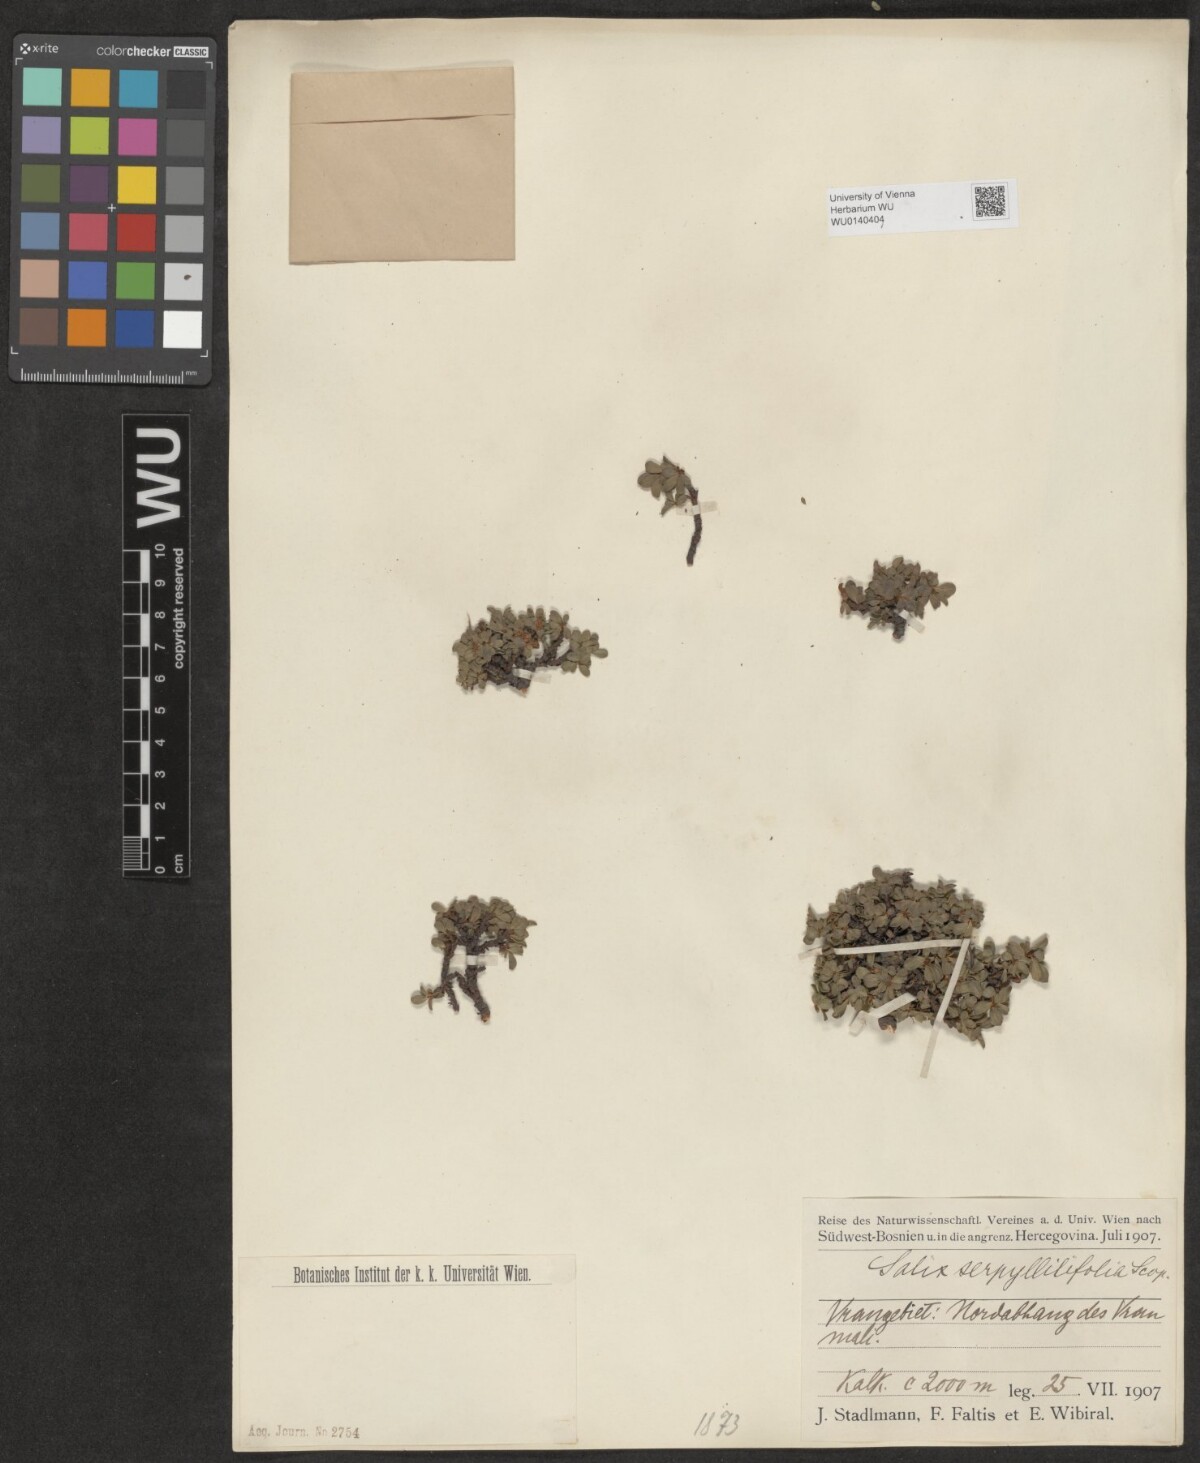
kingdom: Plantae
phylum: Tracheophyta
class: Magnoliopsida
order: Malpighiales
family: Salicaceae
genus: Salix
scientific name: Salix serpillifolia
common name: Thyme-leaf willow
